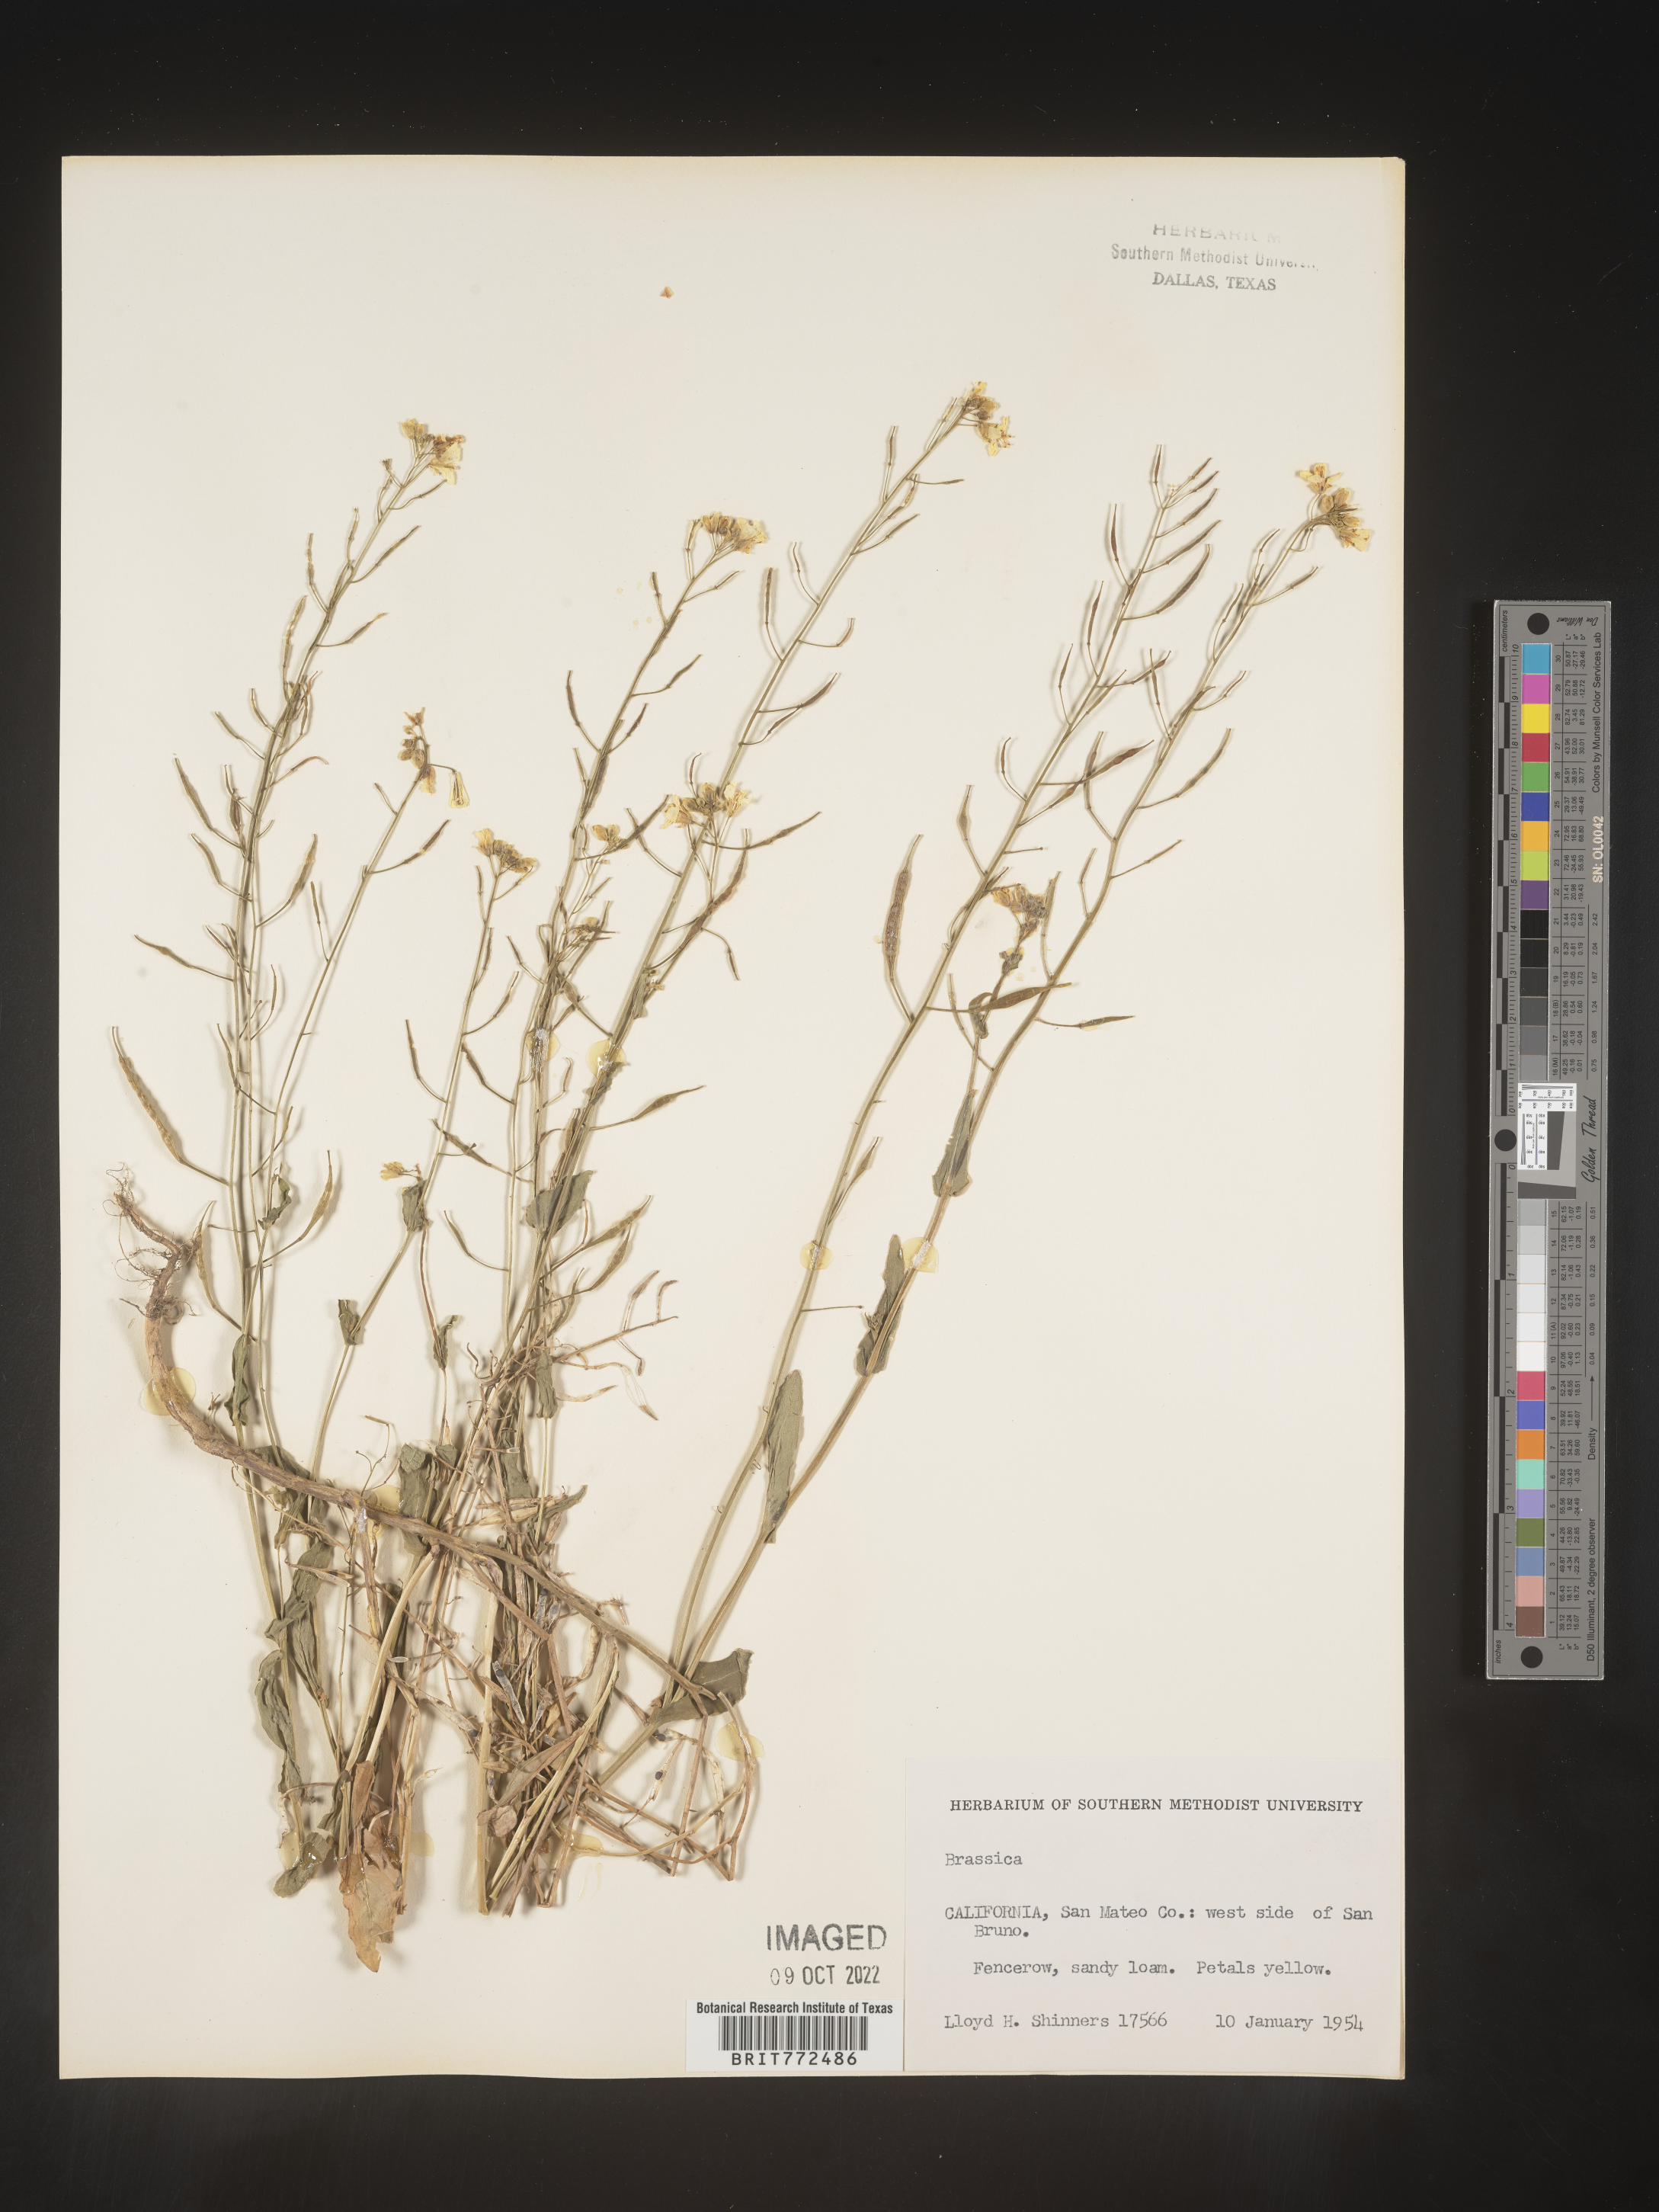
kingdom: Plantae
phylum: Tracheophyta
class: Magnoliopsida
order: Brassicales
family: Brassicaceae
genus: Brassica
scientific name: Brassica
